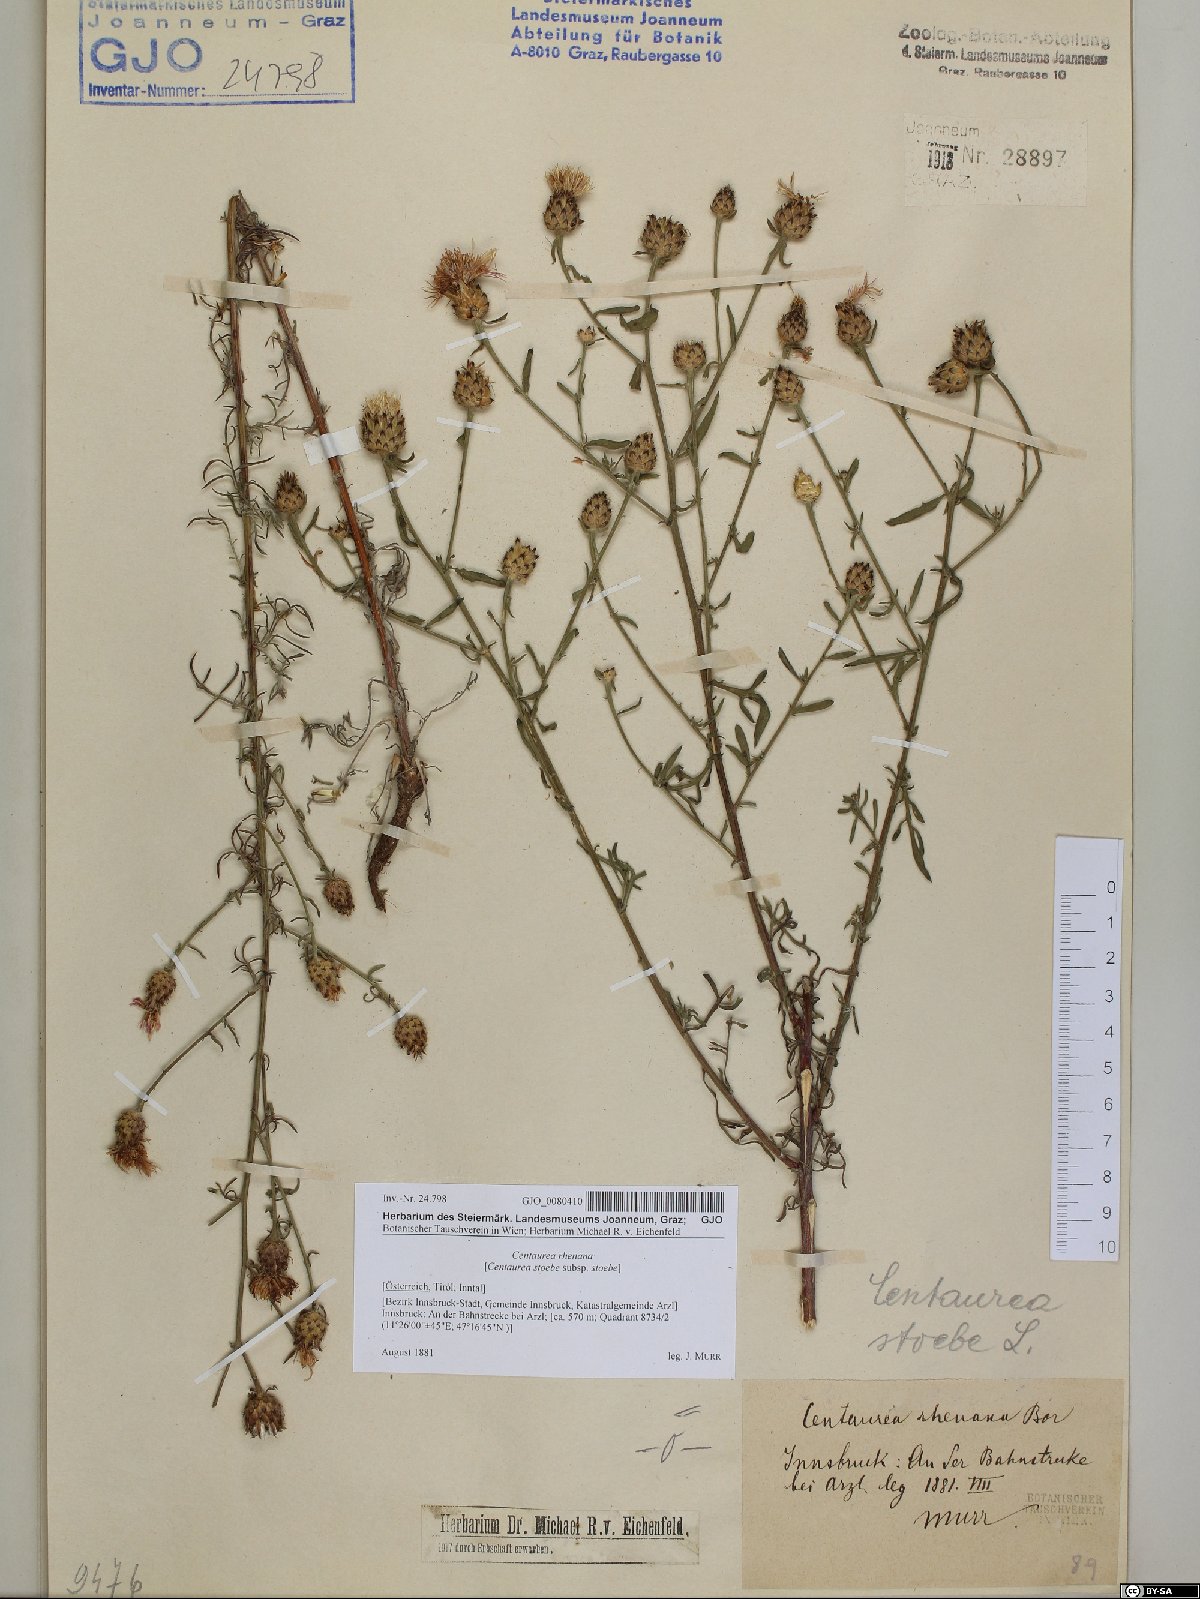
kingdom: Plantae
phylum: Tracheophyta
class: Magnoliopsida
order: Asterales
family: Asteraceae
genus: Centaurea
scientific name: Centaurea stoebe
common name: Spotted knapweed
